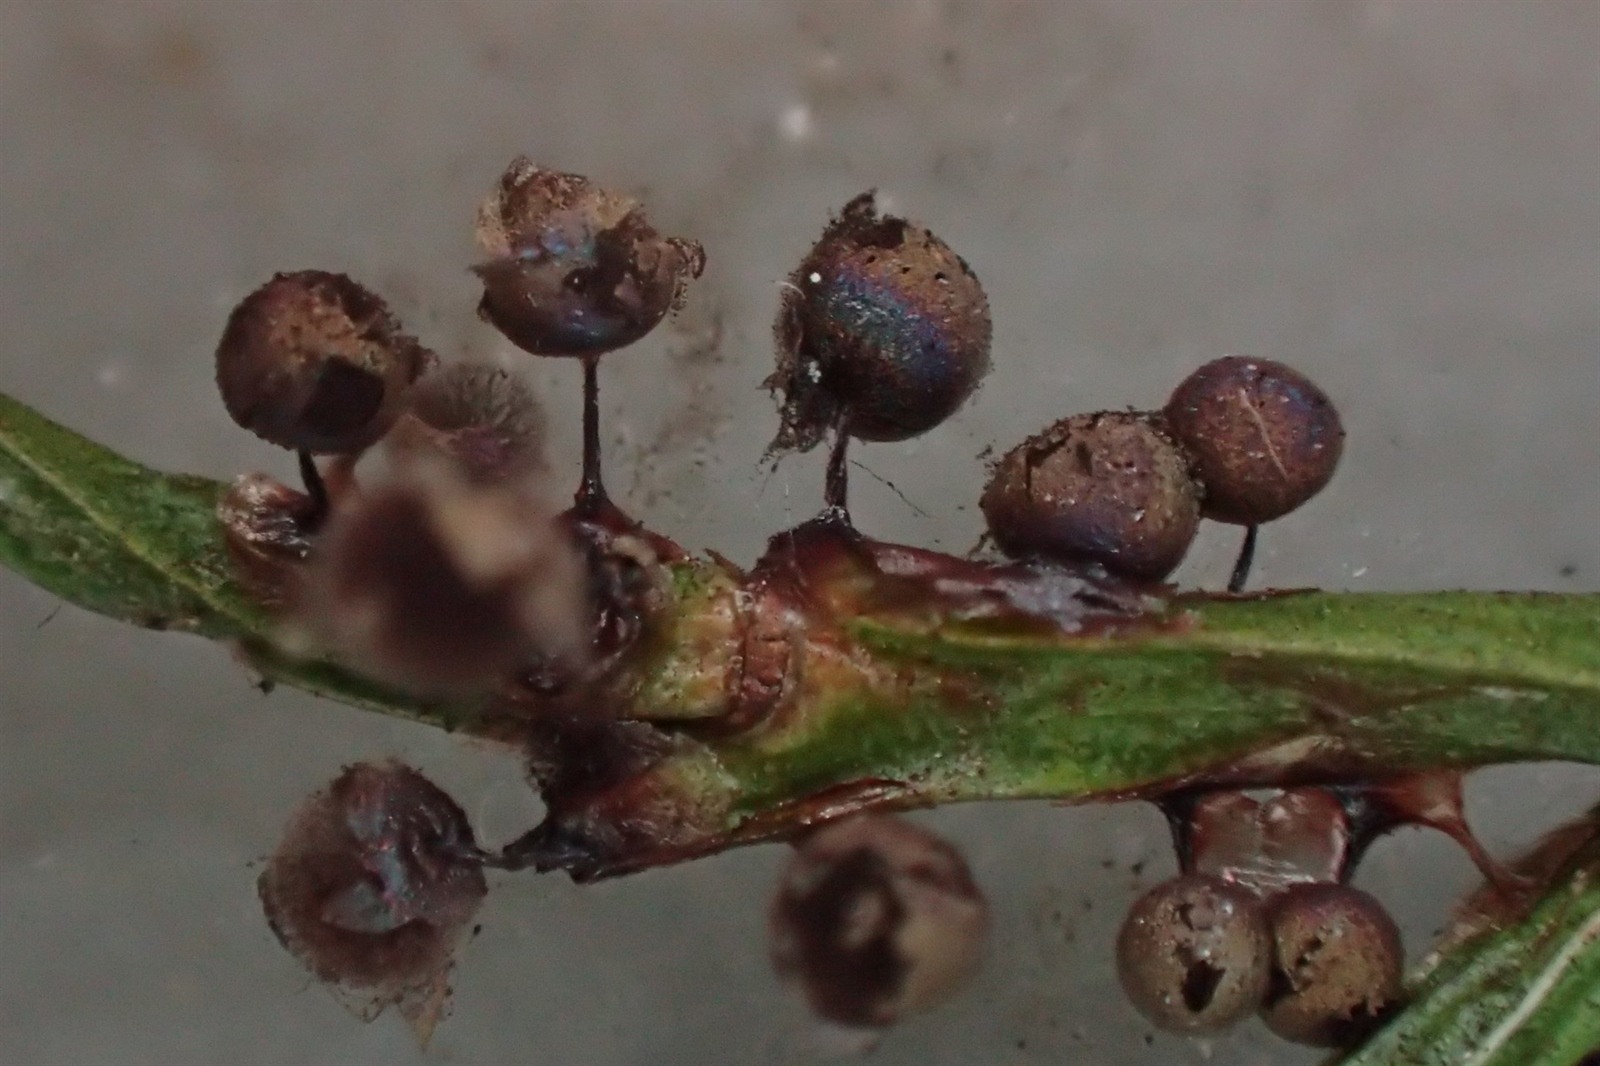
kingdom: Protozoa
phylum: Mycetozoa
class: Myxomycetes
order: Stemonitidales
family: Stemonitidaceae
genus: Lamproderma
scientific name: Lamproderma arcyrioides
